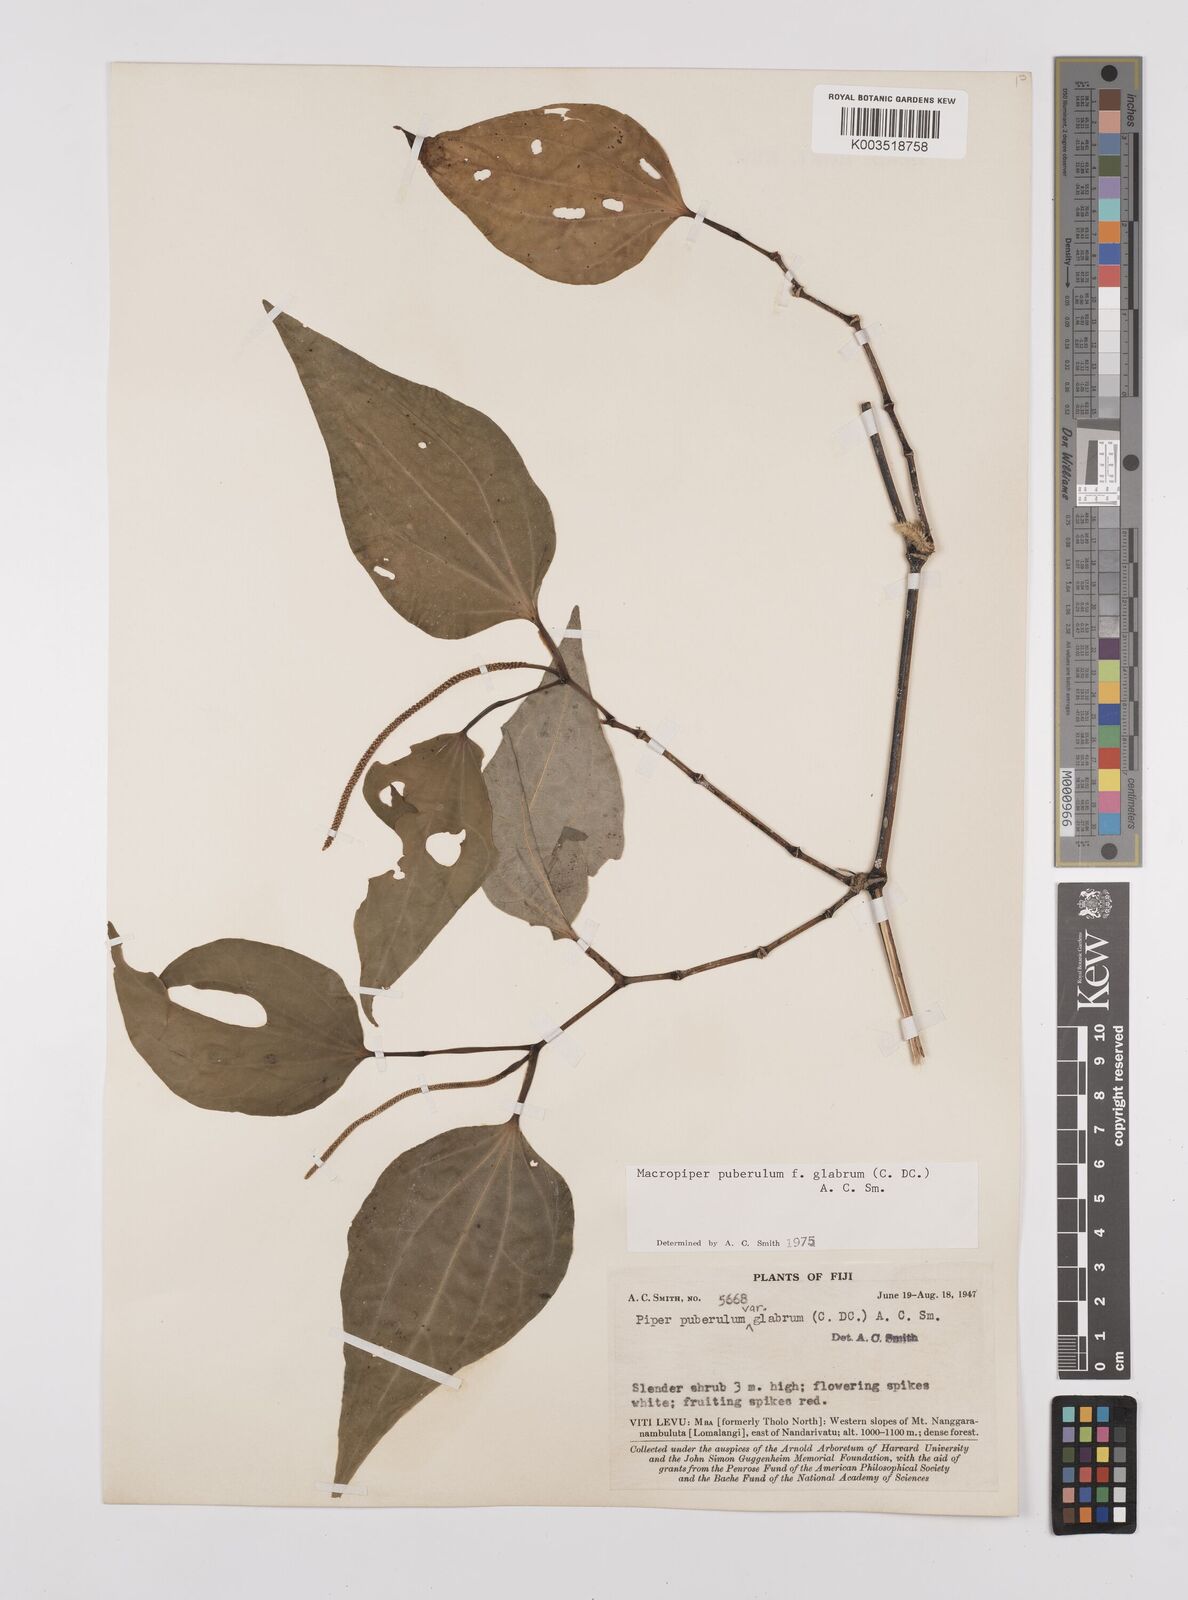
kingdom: Plantae
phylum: Tracheophyta
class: Magnoliopsida
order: Piperales
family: Piperaceae
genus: Macropiper
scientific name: Macropiper puberulum
